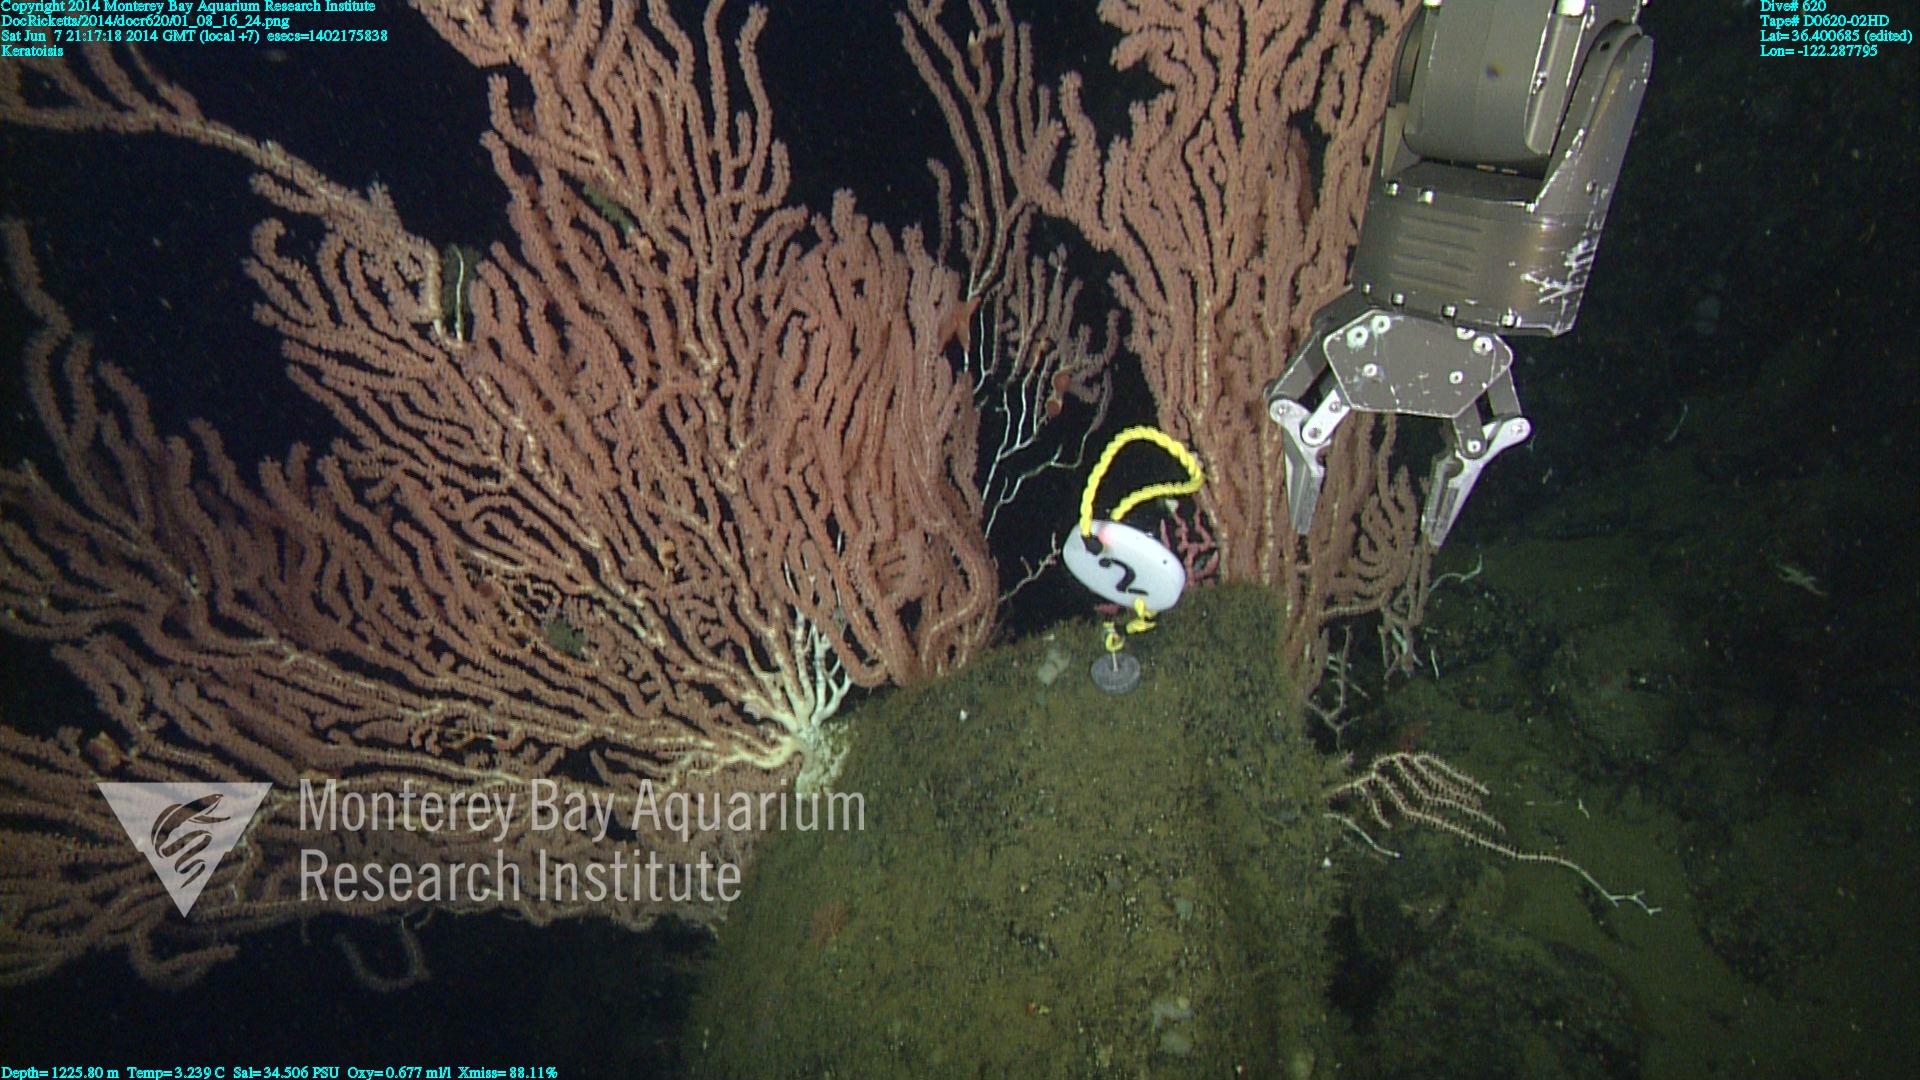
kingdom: Animalia
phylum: Cnidaria
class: Anthozoa
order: Scleralcyonacea
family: Keratoisididae
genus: Keratoisis
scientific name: Keratoisis
